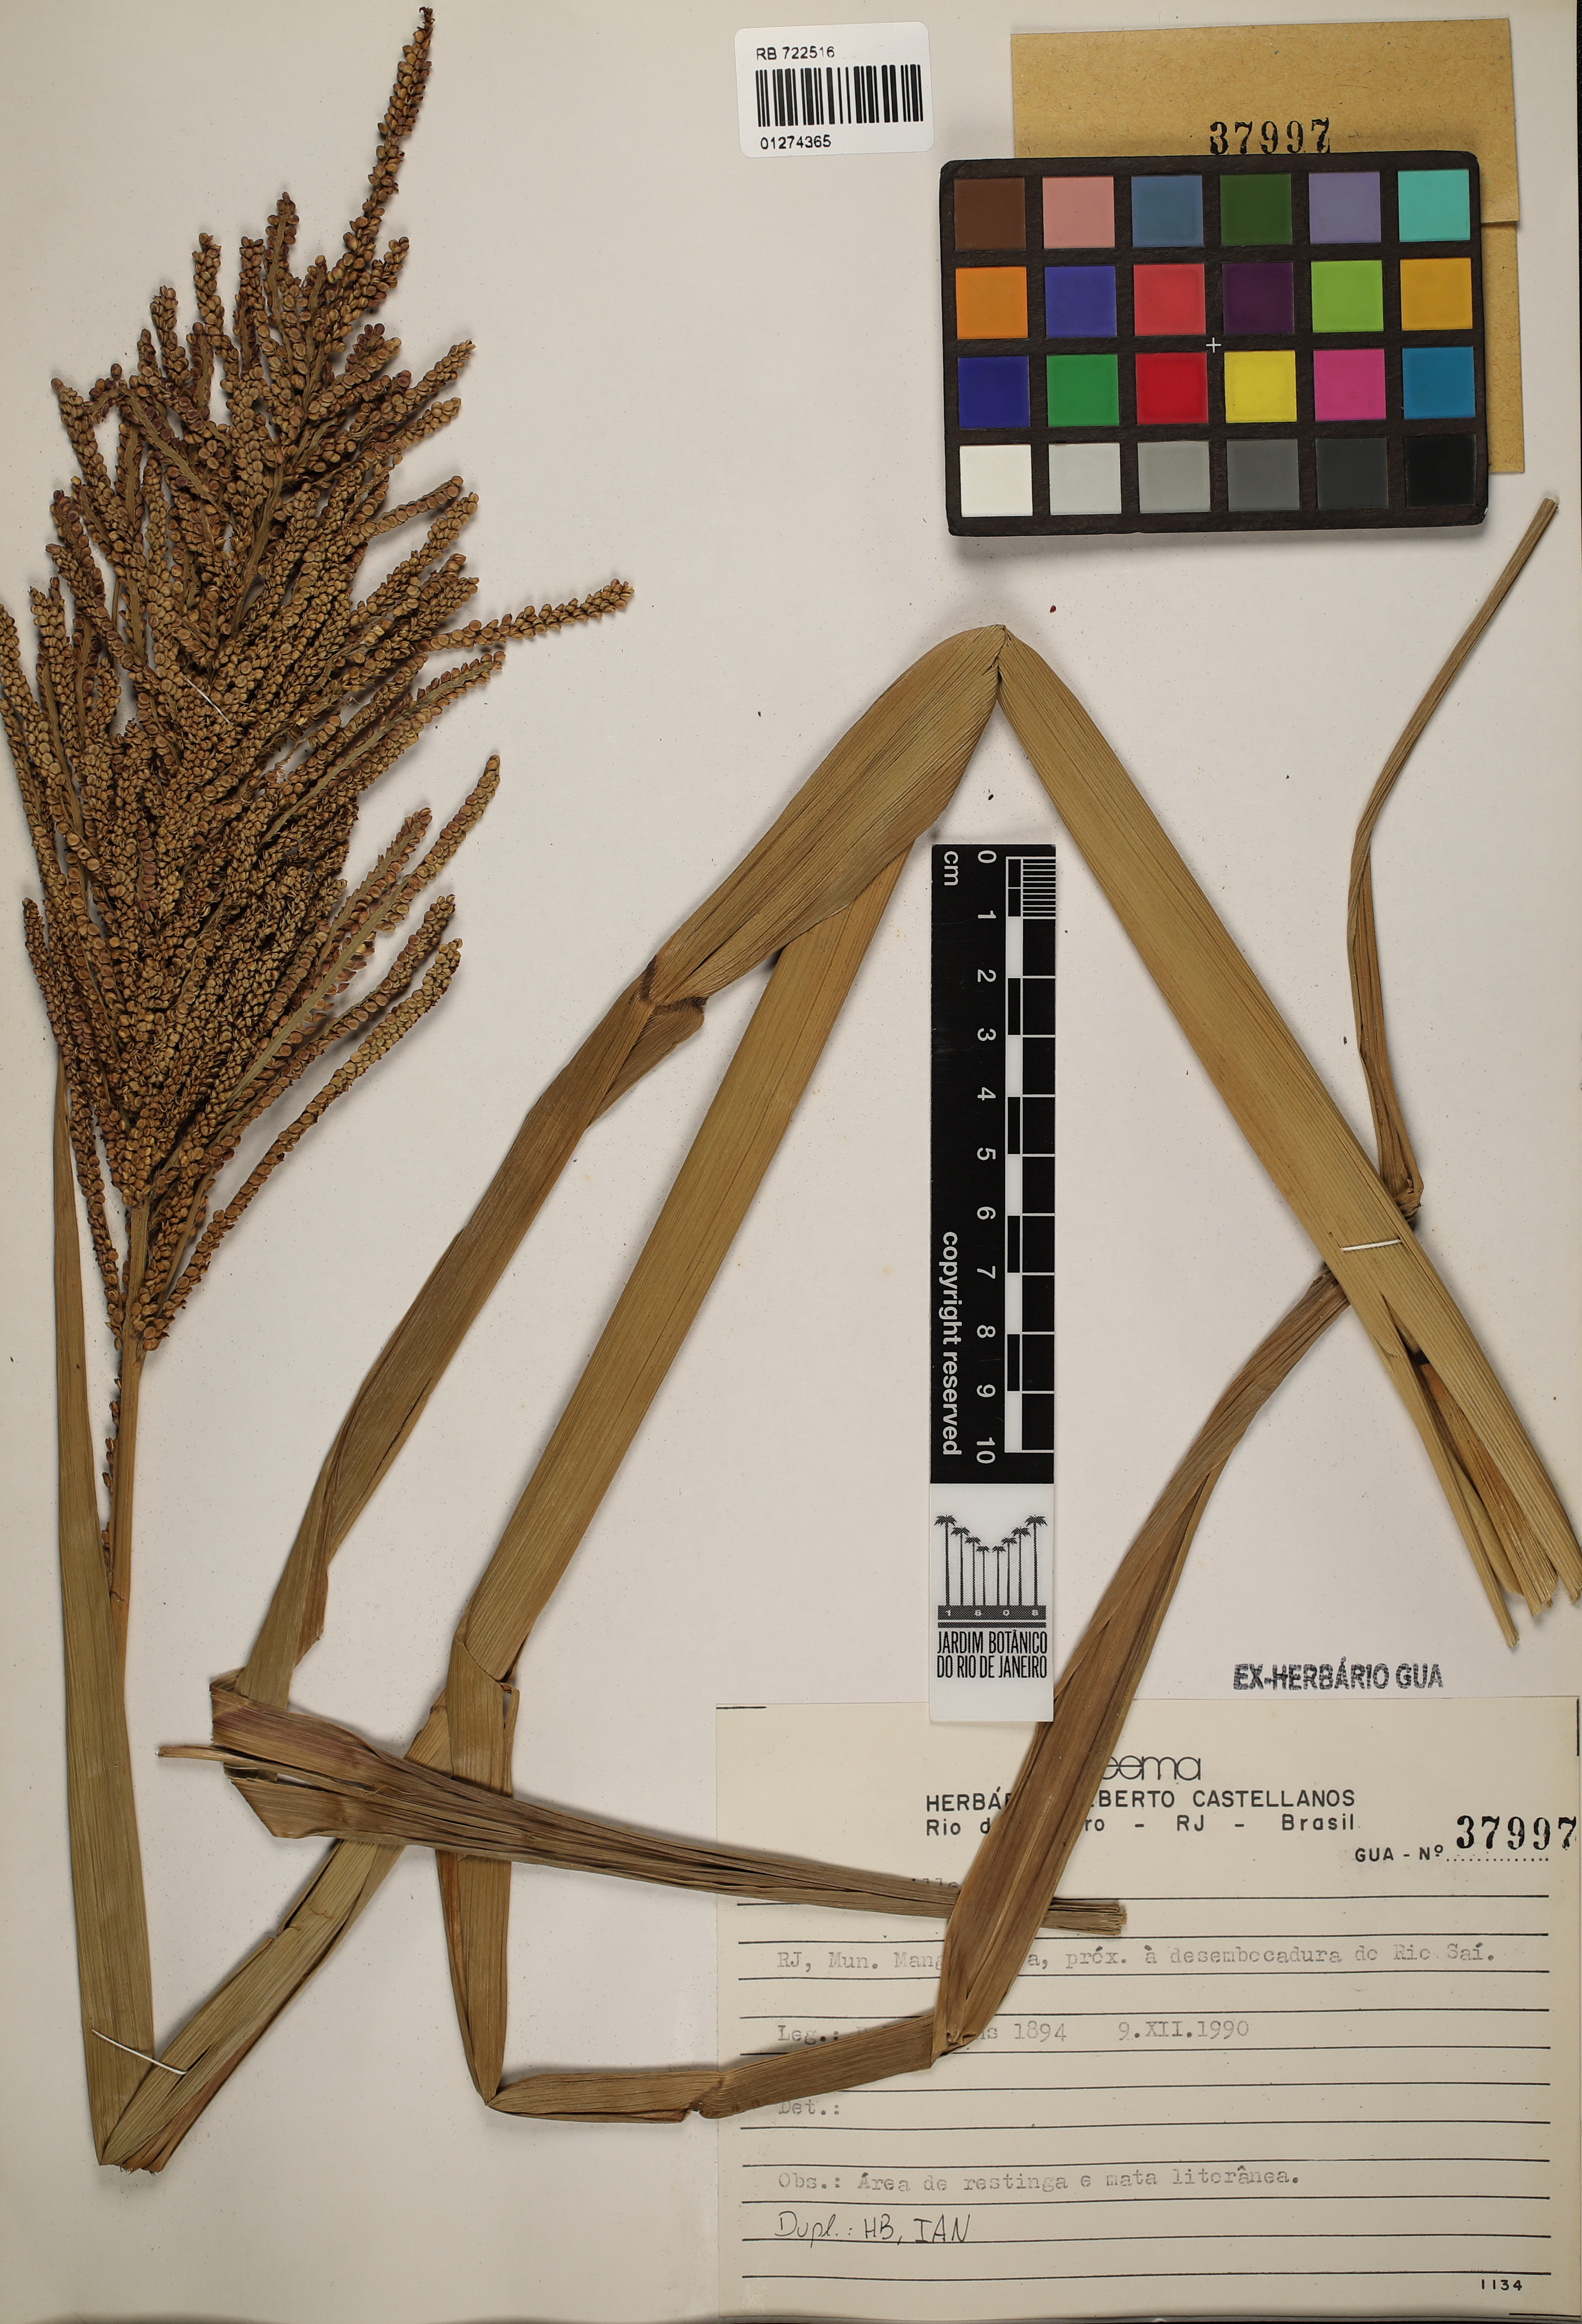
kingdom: Plantae
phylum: Tracheophyta
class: Liliopsida
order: Poales
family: Poaceae
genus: Paspalum
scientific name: Paspalum millegrana
